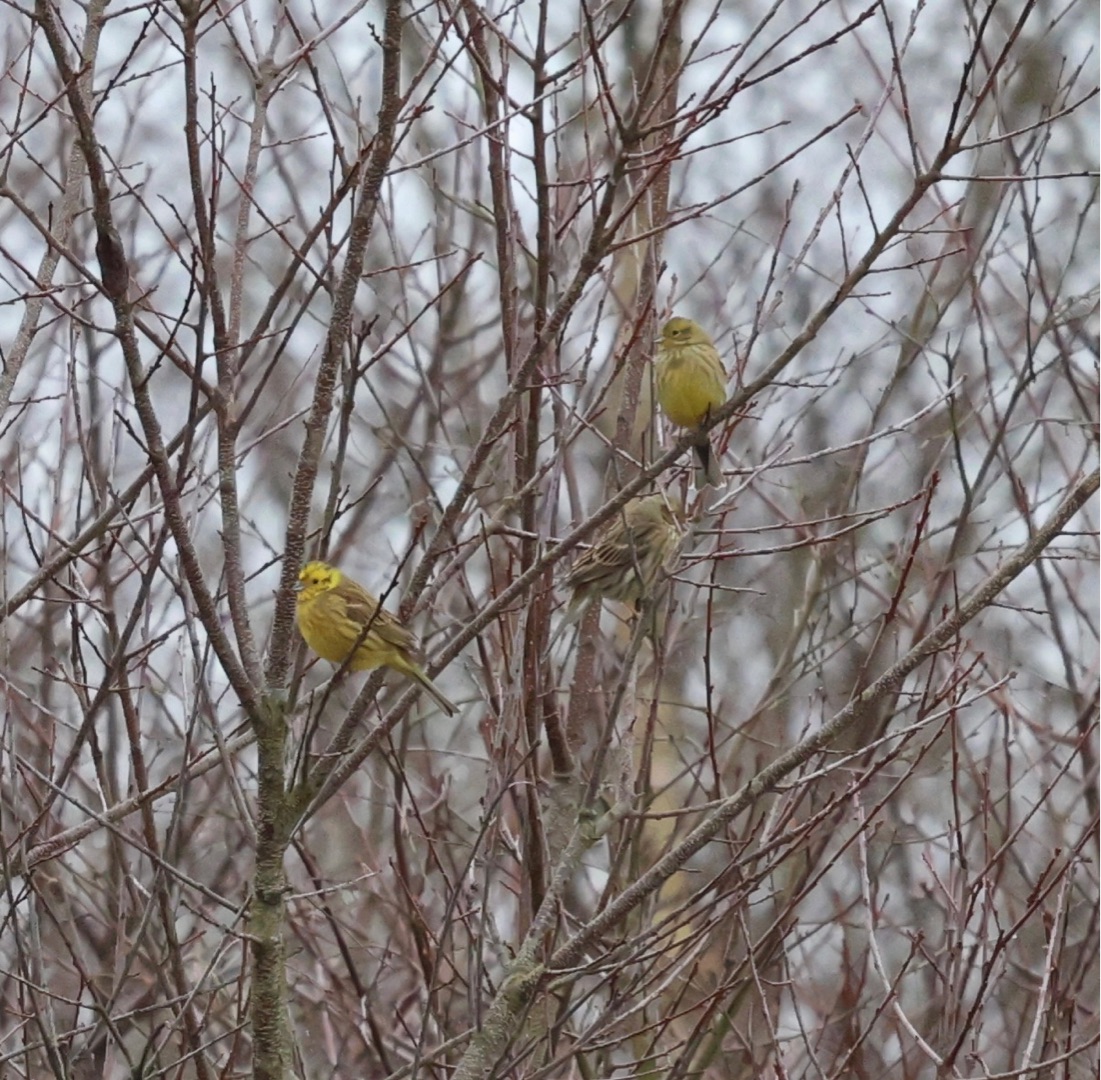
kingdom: Animalia
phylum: Chordata
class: Aves
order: Passeriformes
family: Emberizidae
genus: Emberiza
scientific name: Emberiza citrinella
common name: Gulspurv
